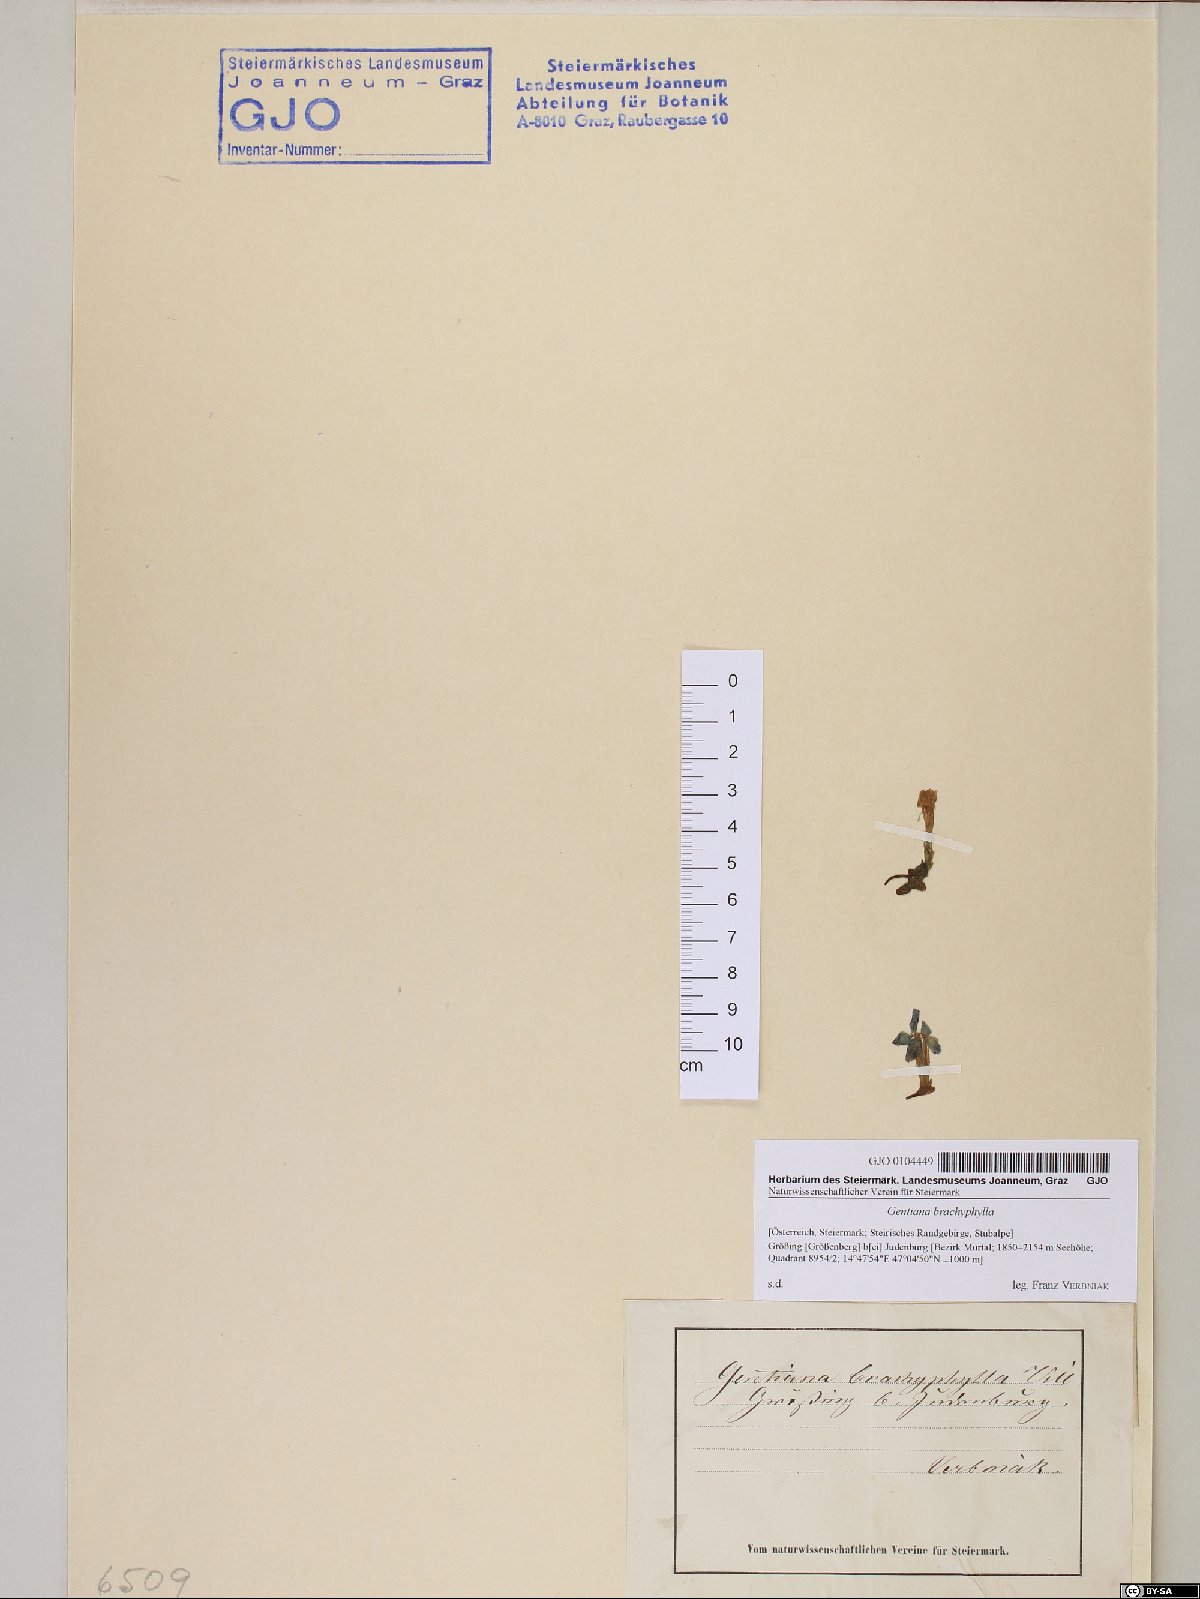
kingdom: Plantae
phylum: Tracheophyta
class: Magnoliopsida
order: Gentianales
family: Gentianaceae
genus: Gentiana
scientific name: Gentiana brachyphylla
